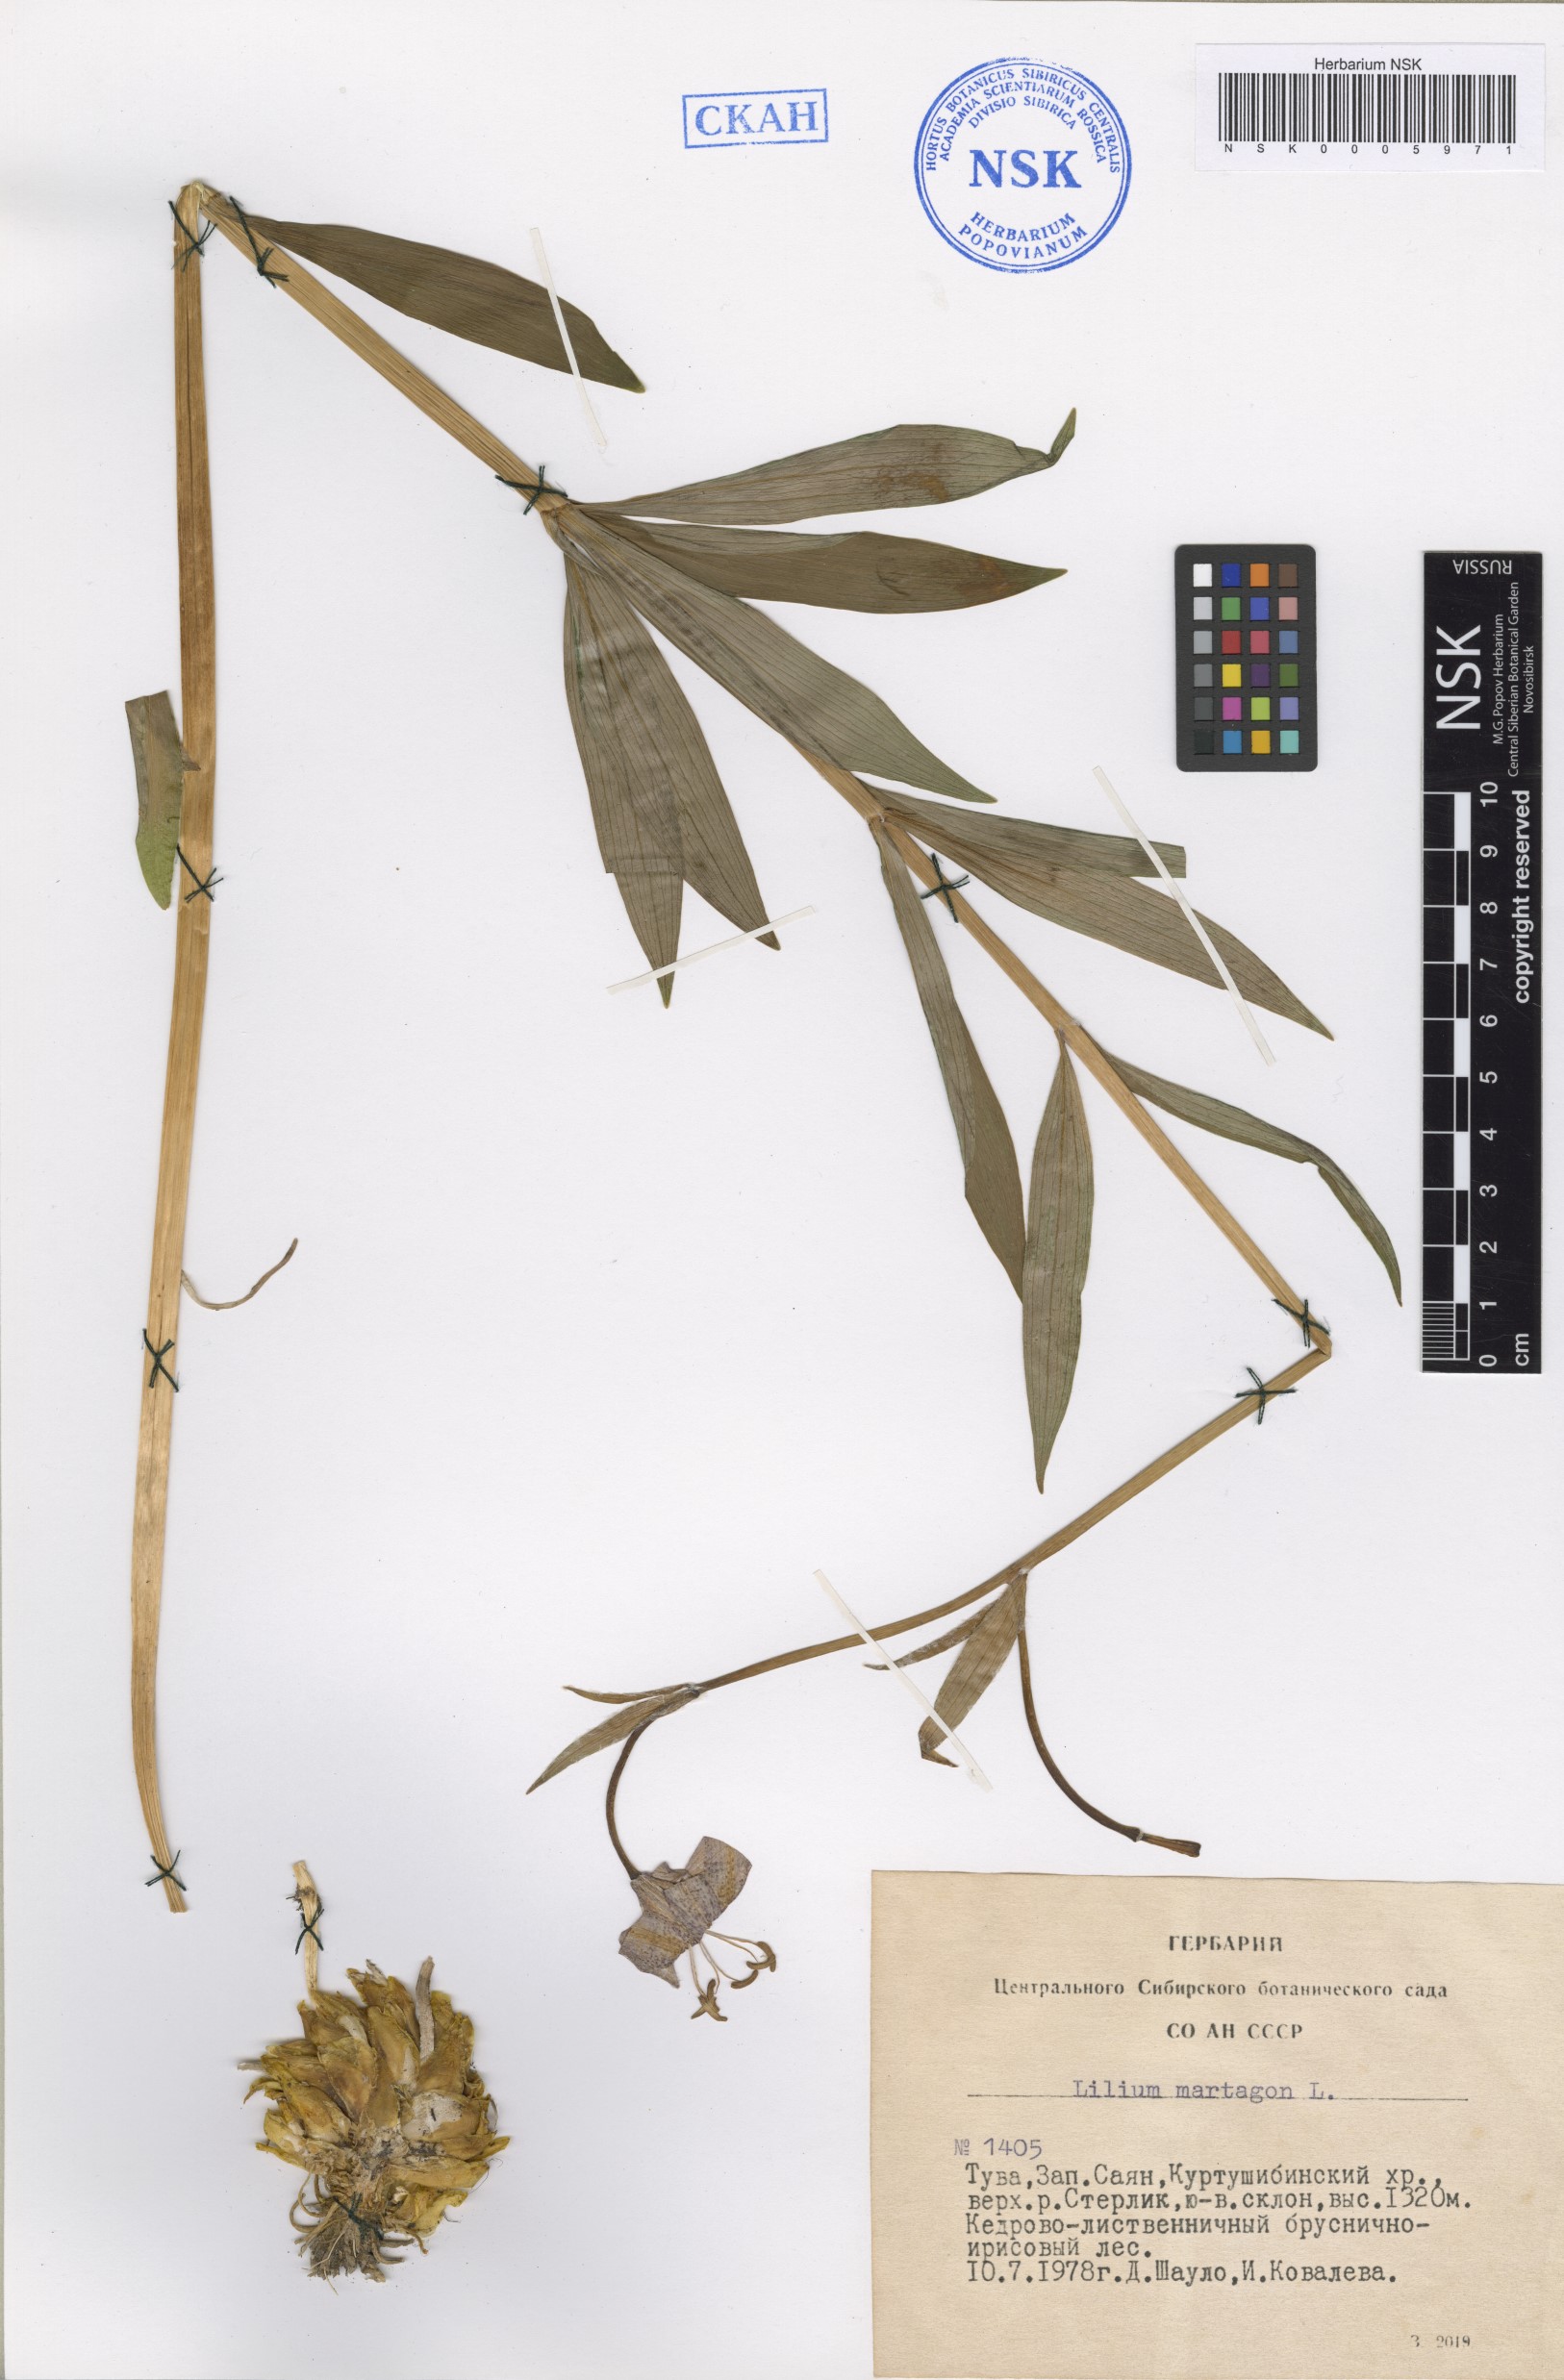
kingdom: Plantae
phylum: Tracheophyta
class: Liliopsida
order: Liliales
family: Liliaceae
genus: Lilium
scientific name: Lilium martagon
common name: Martagon lily
